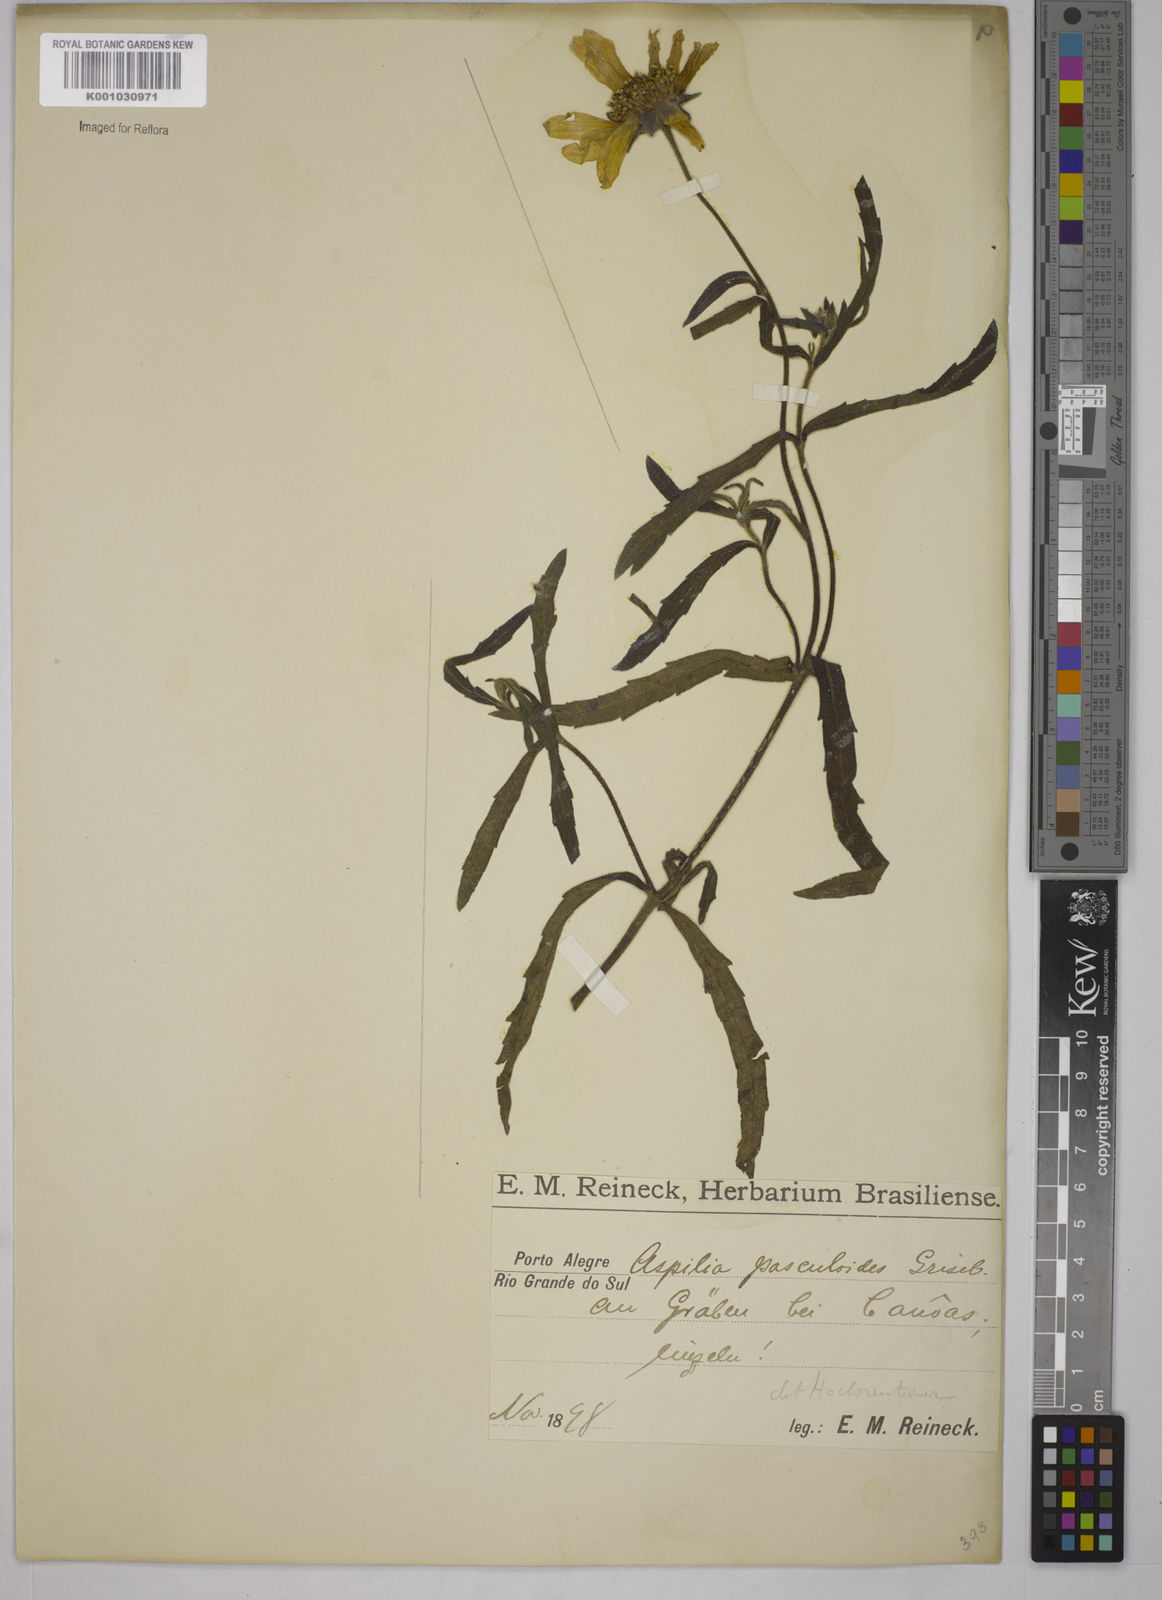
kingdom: Plantae
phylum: Tracheophyta
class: Magnoliopsida
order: Asterales
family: Asteraceae
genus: Wedelia
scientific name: Wedelia pascalioides
